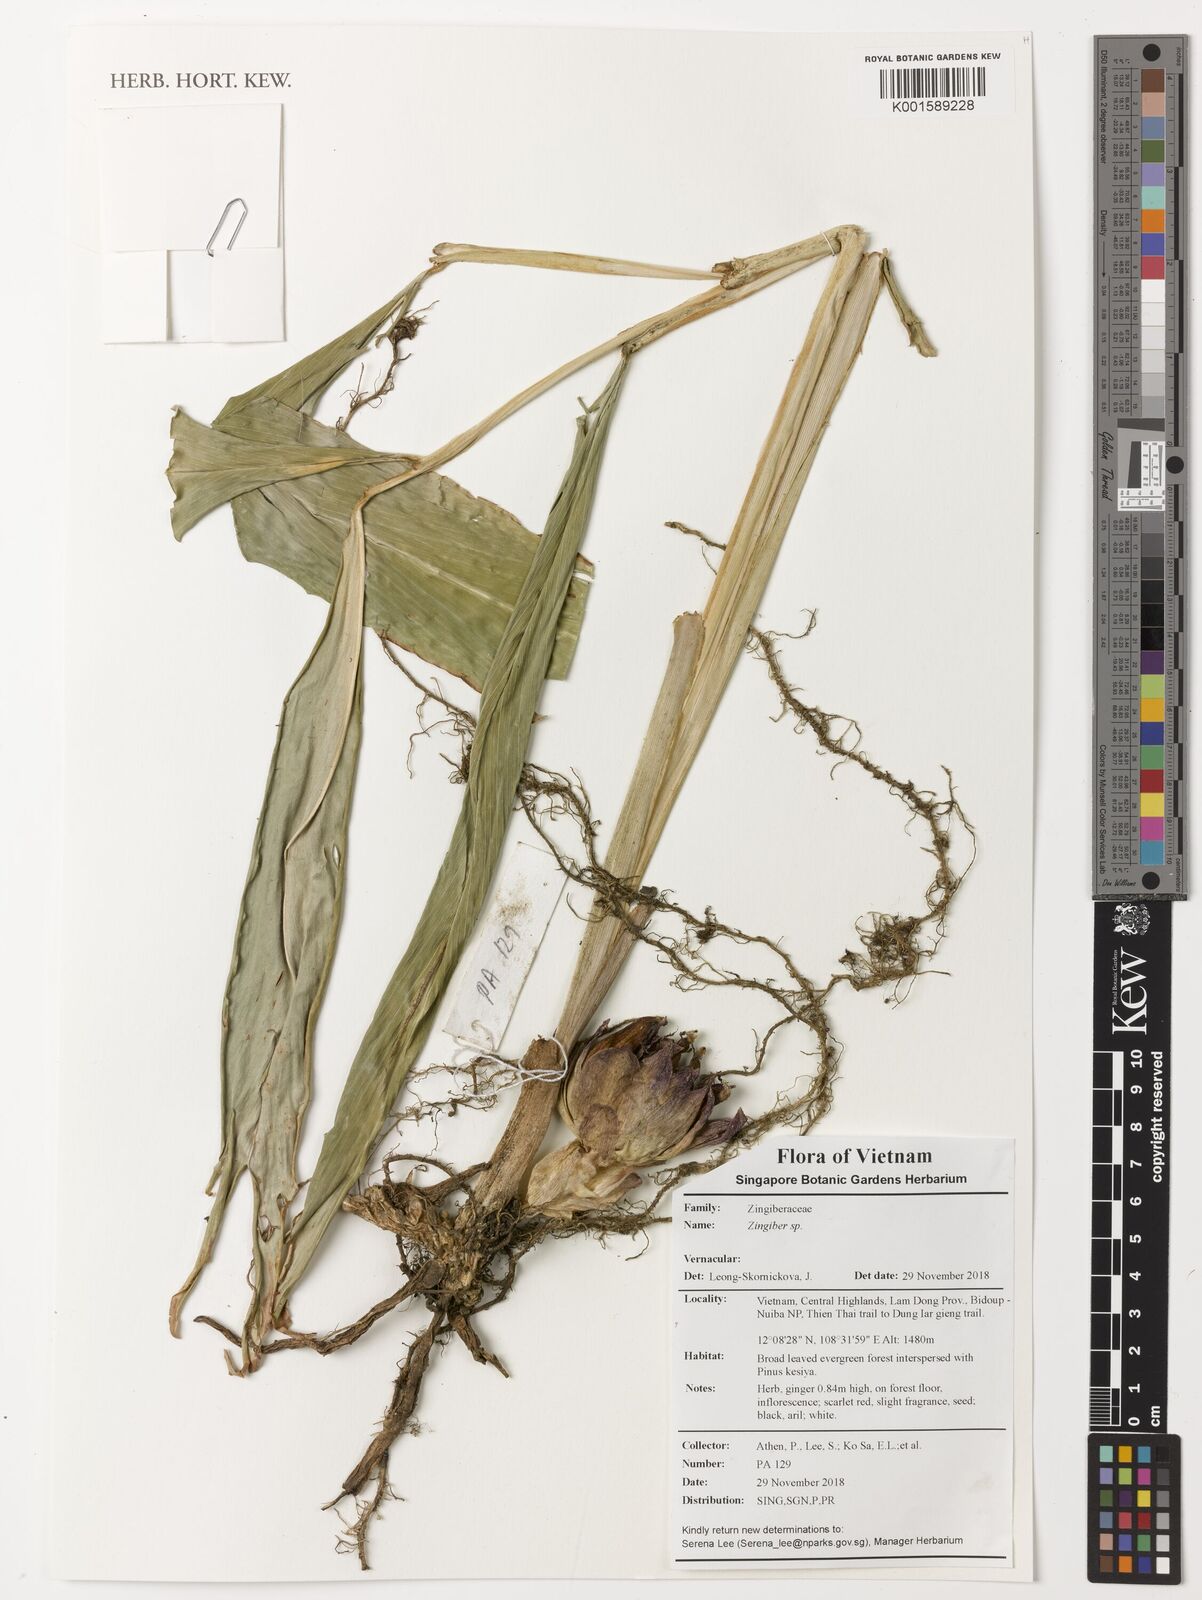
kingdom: Plantae
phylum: Tracheophyta
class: Liliopsida
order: Zingiberales
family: Zingiberaceae
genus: Zingiber
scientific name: Zingiber
